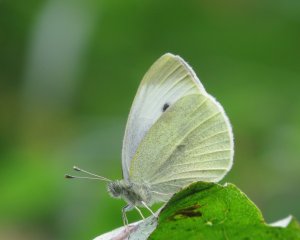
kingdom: Animalia
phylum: Arthropoda
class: Insecta
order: Lepidoptera
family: Pieridae
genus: Pieris
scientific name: Pieris rapae
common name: Cabbage White
